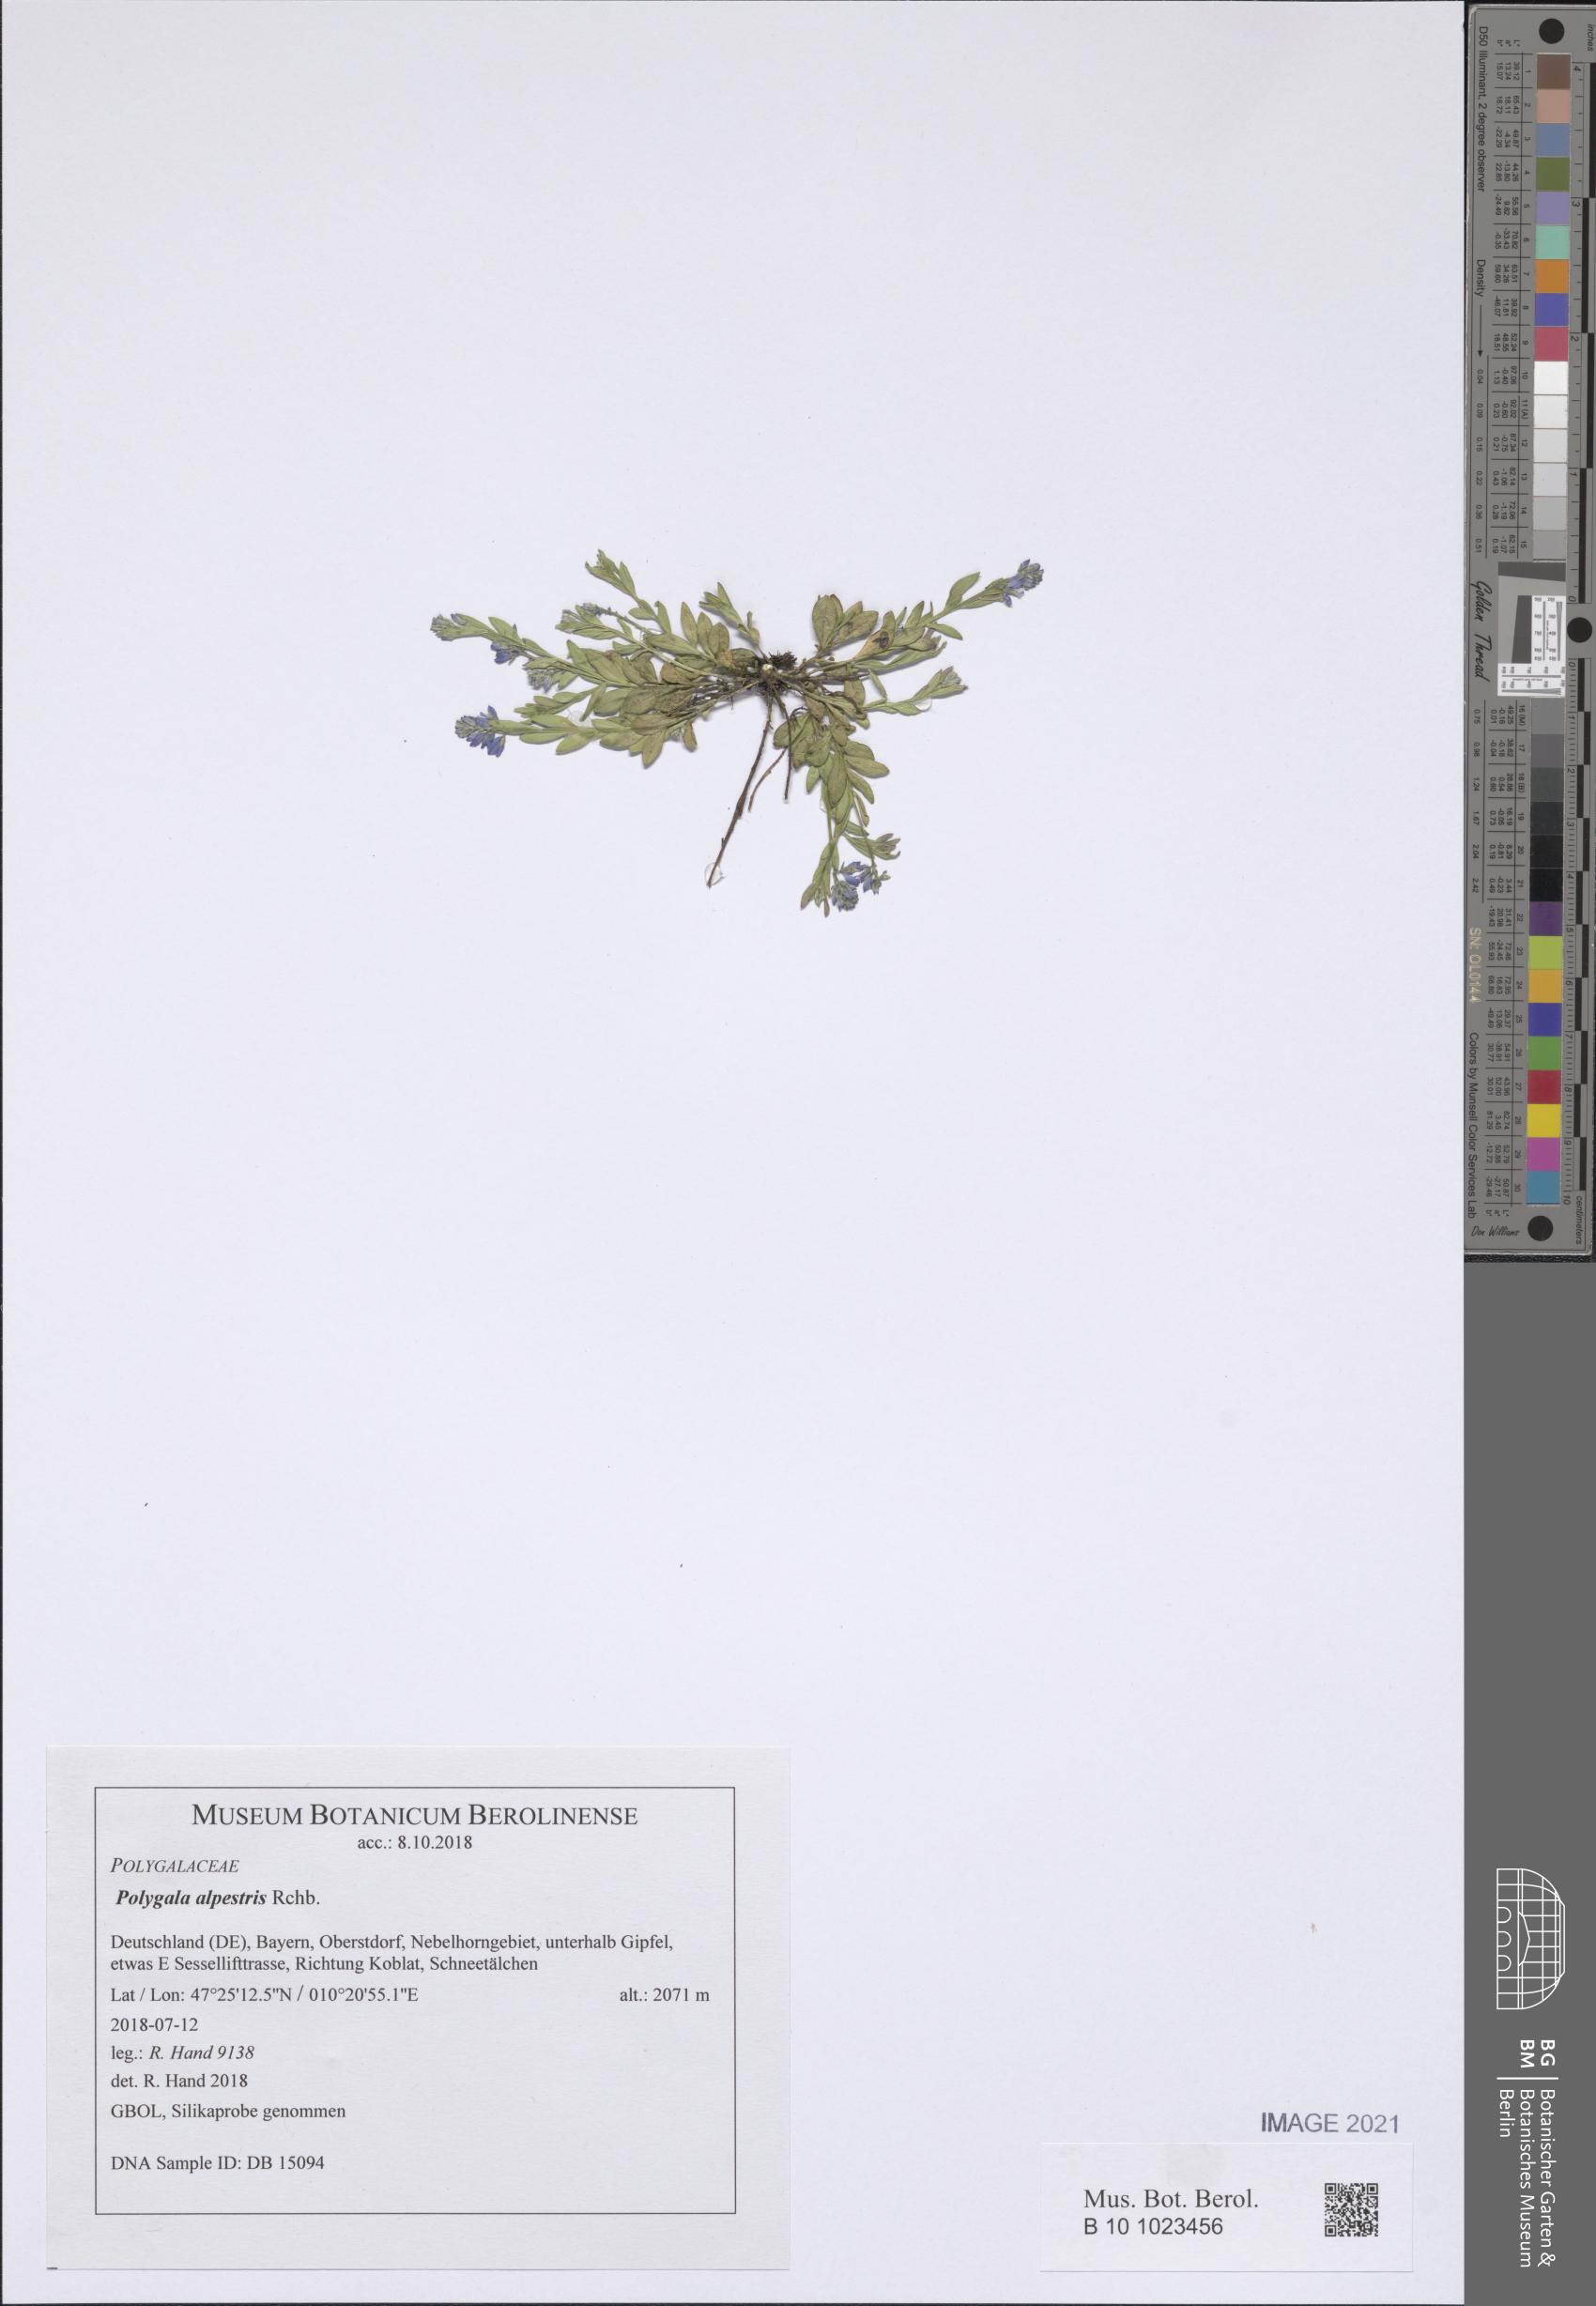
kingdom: Plantae
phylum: Tracheophyta
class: Magnoliopsida
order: Fabales
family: Polygalaceae
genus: Polygala
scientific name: Polygala alpestris
